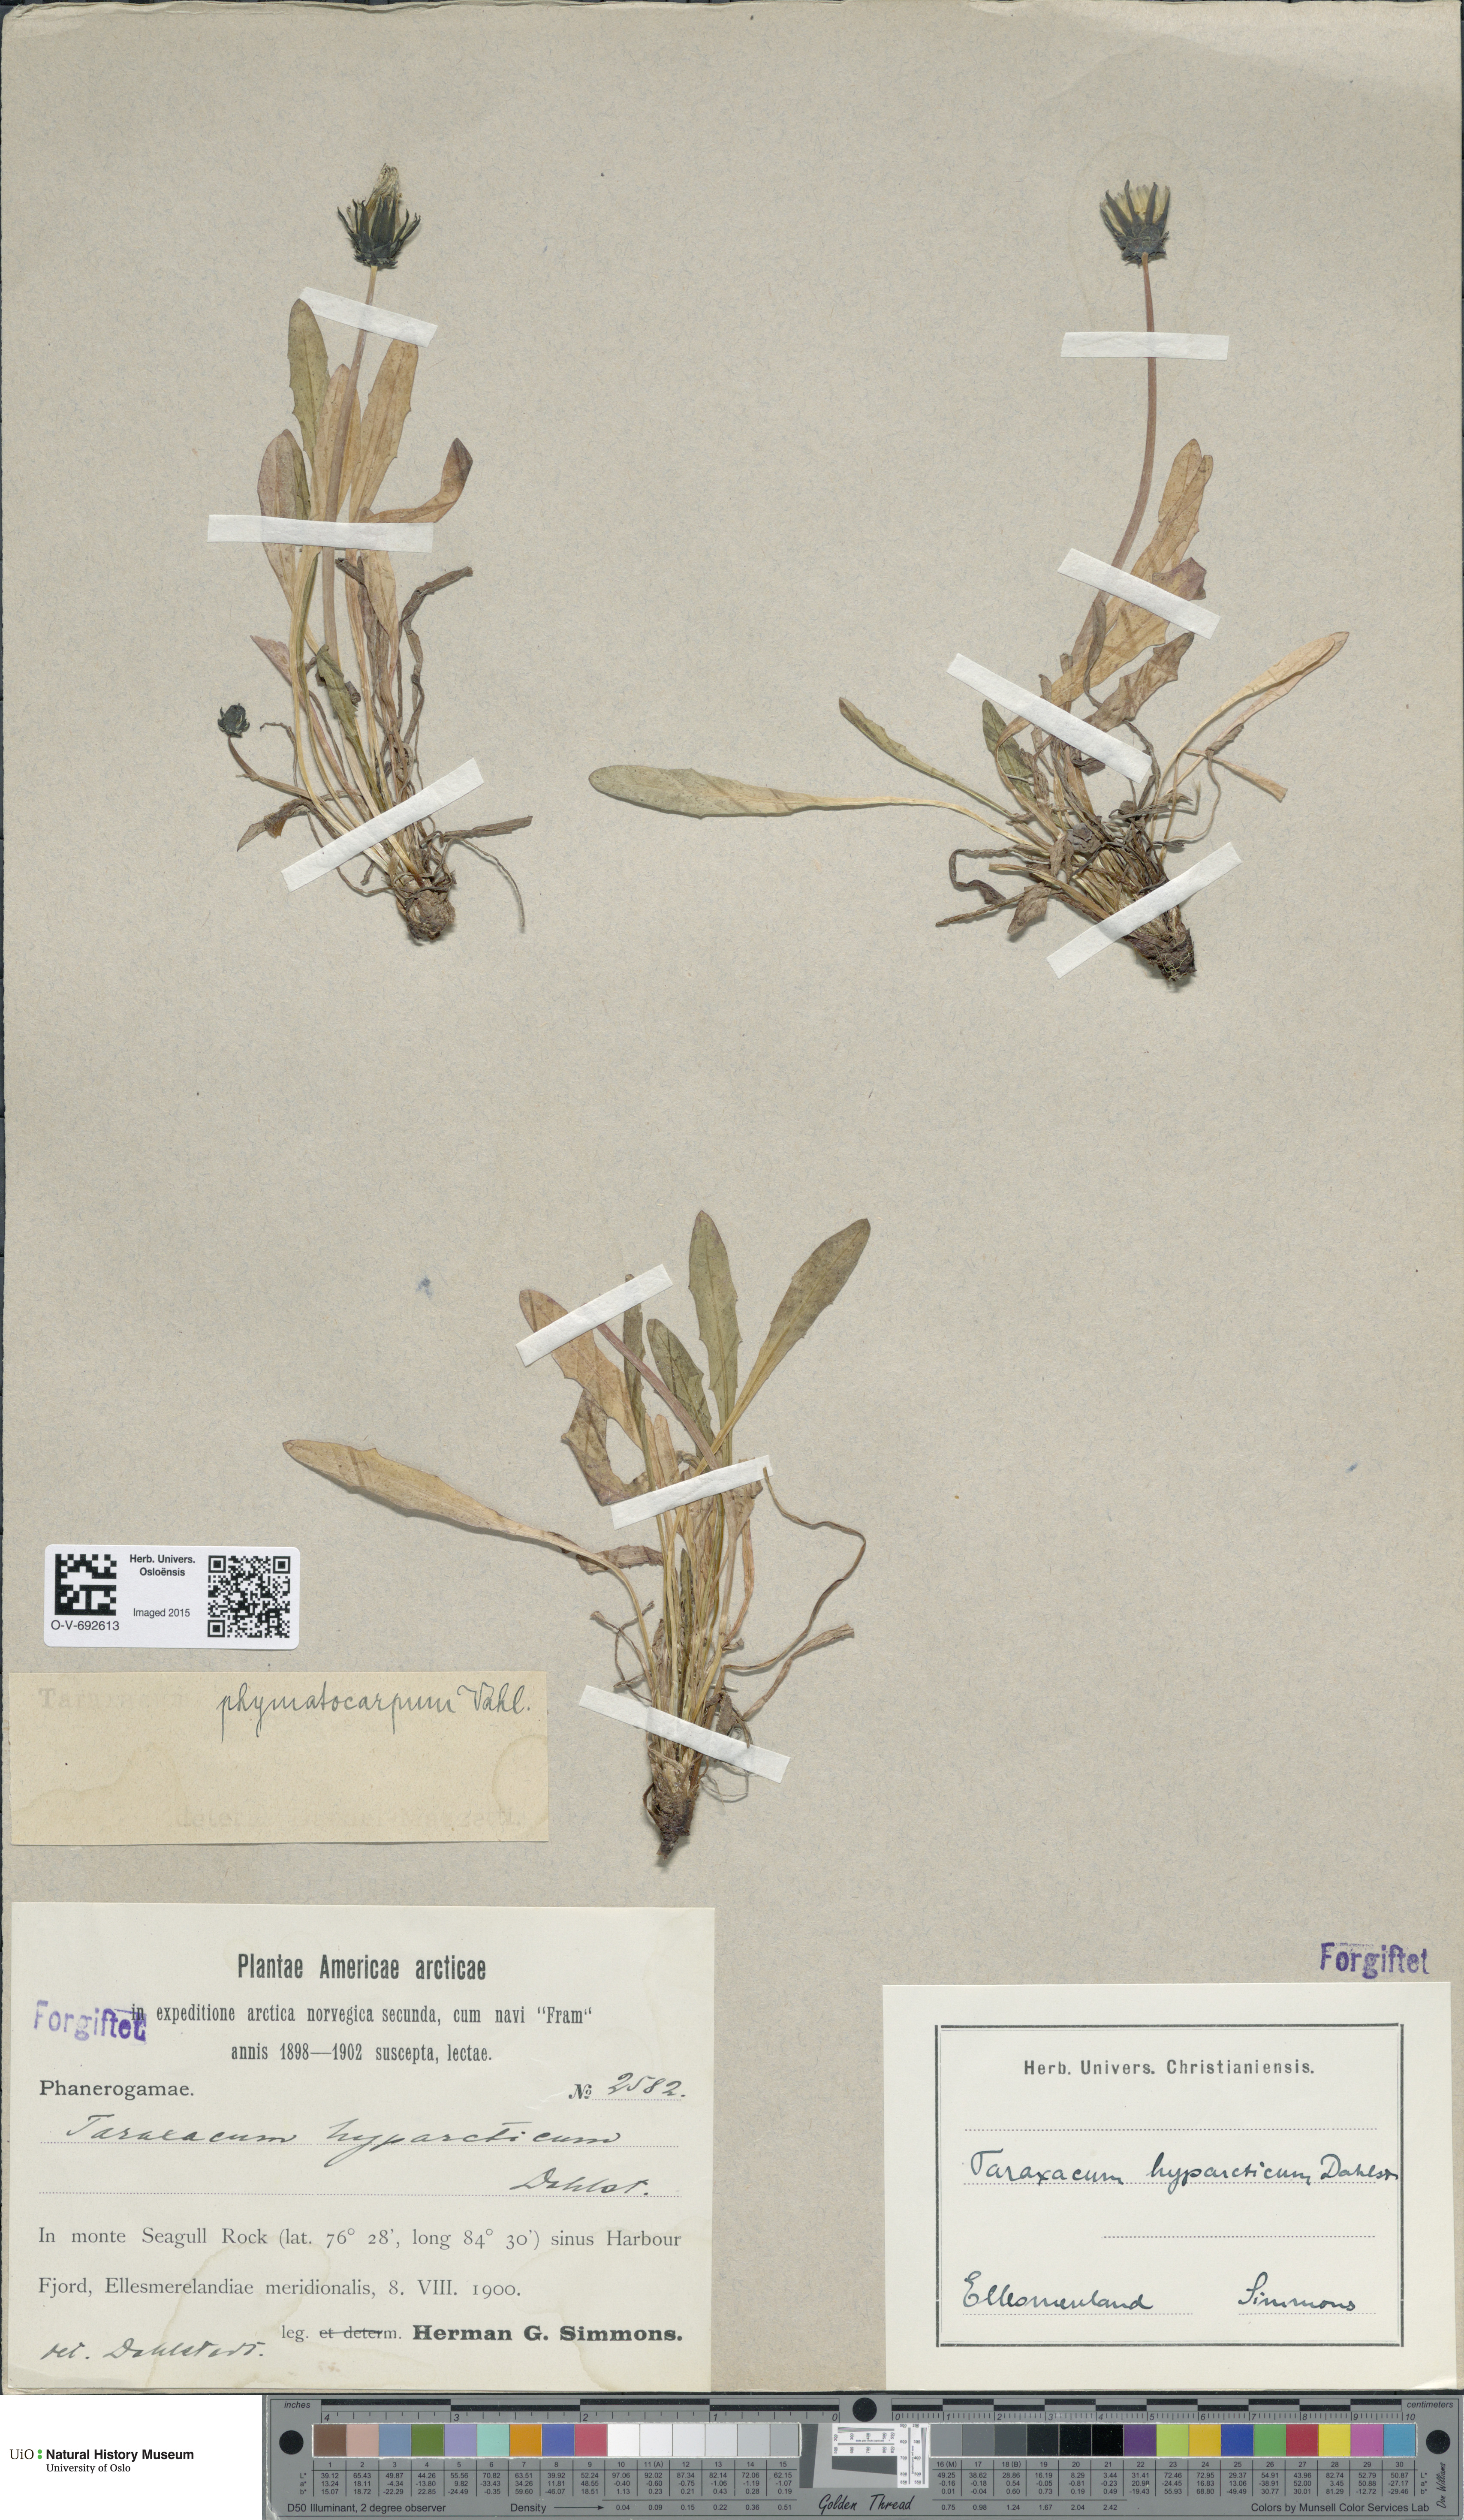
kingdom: Plantae
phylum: Tracheophyta
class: Magnoliopsida
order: Asterales
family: Asteraceae
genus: Taraxacum
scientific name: Taraxacum hyparcticum
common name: High arctic dandelion
